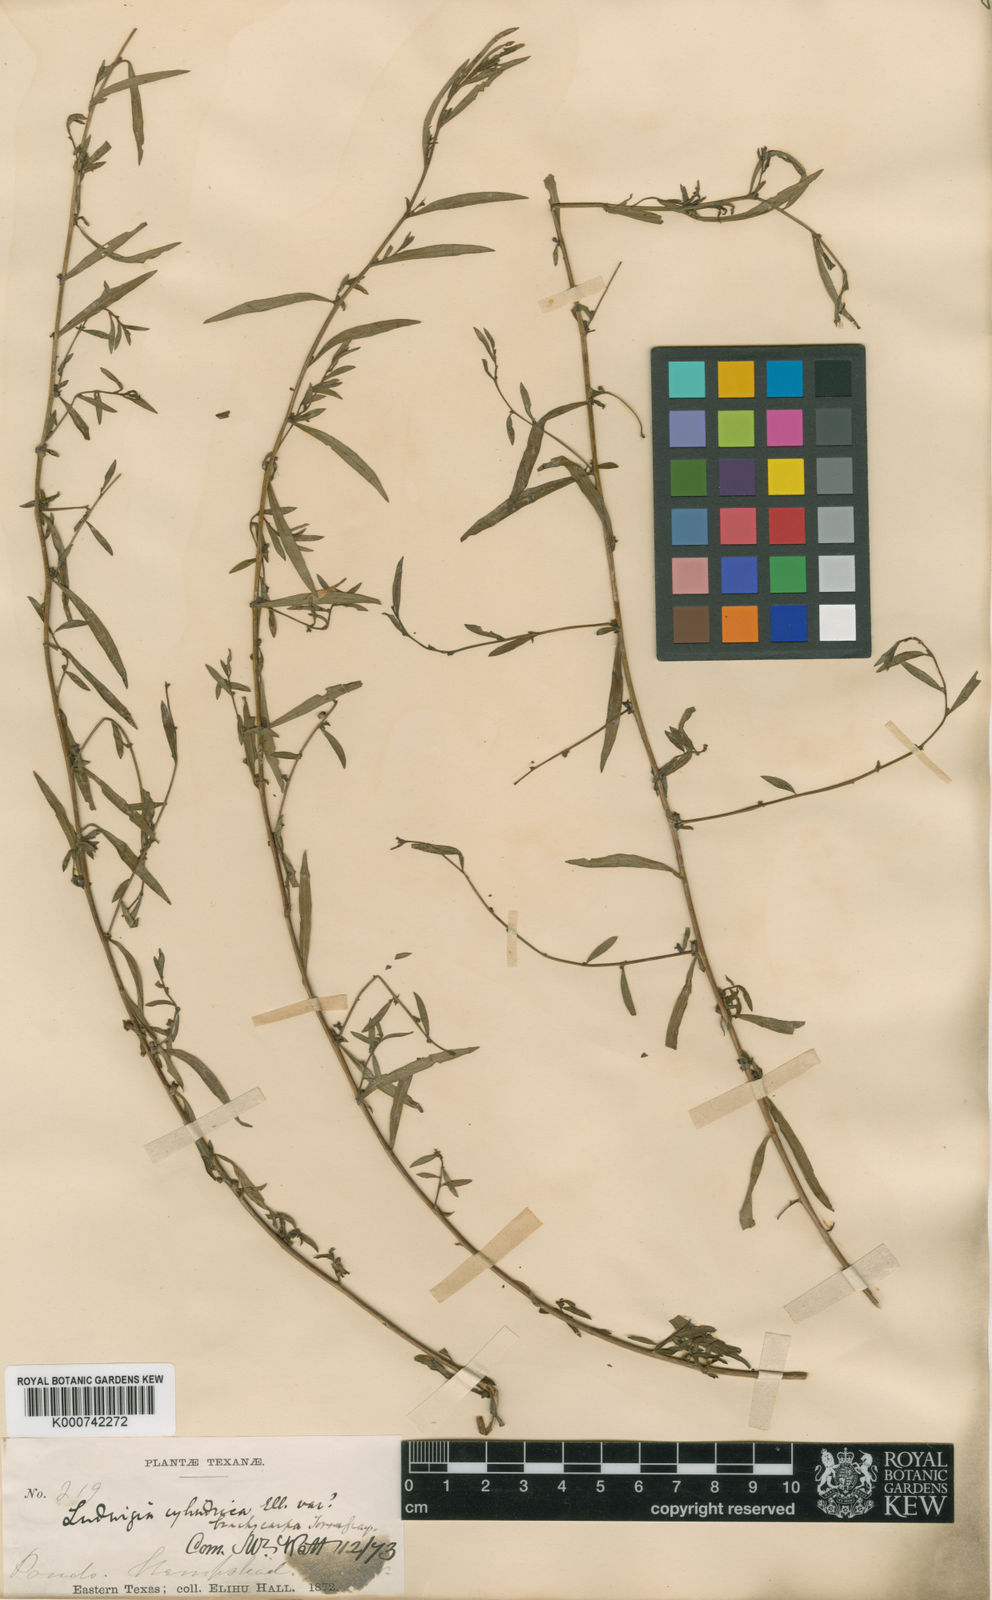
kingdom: Plantae
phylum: Tracheophyta
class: Magnoliopsida
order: Myrtales
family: Onagraceae
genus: Ludwigia
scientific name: Ludwigia glandulosa
